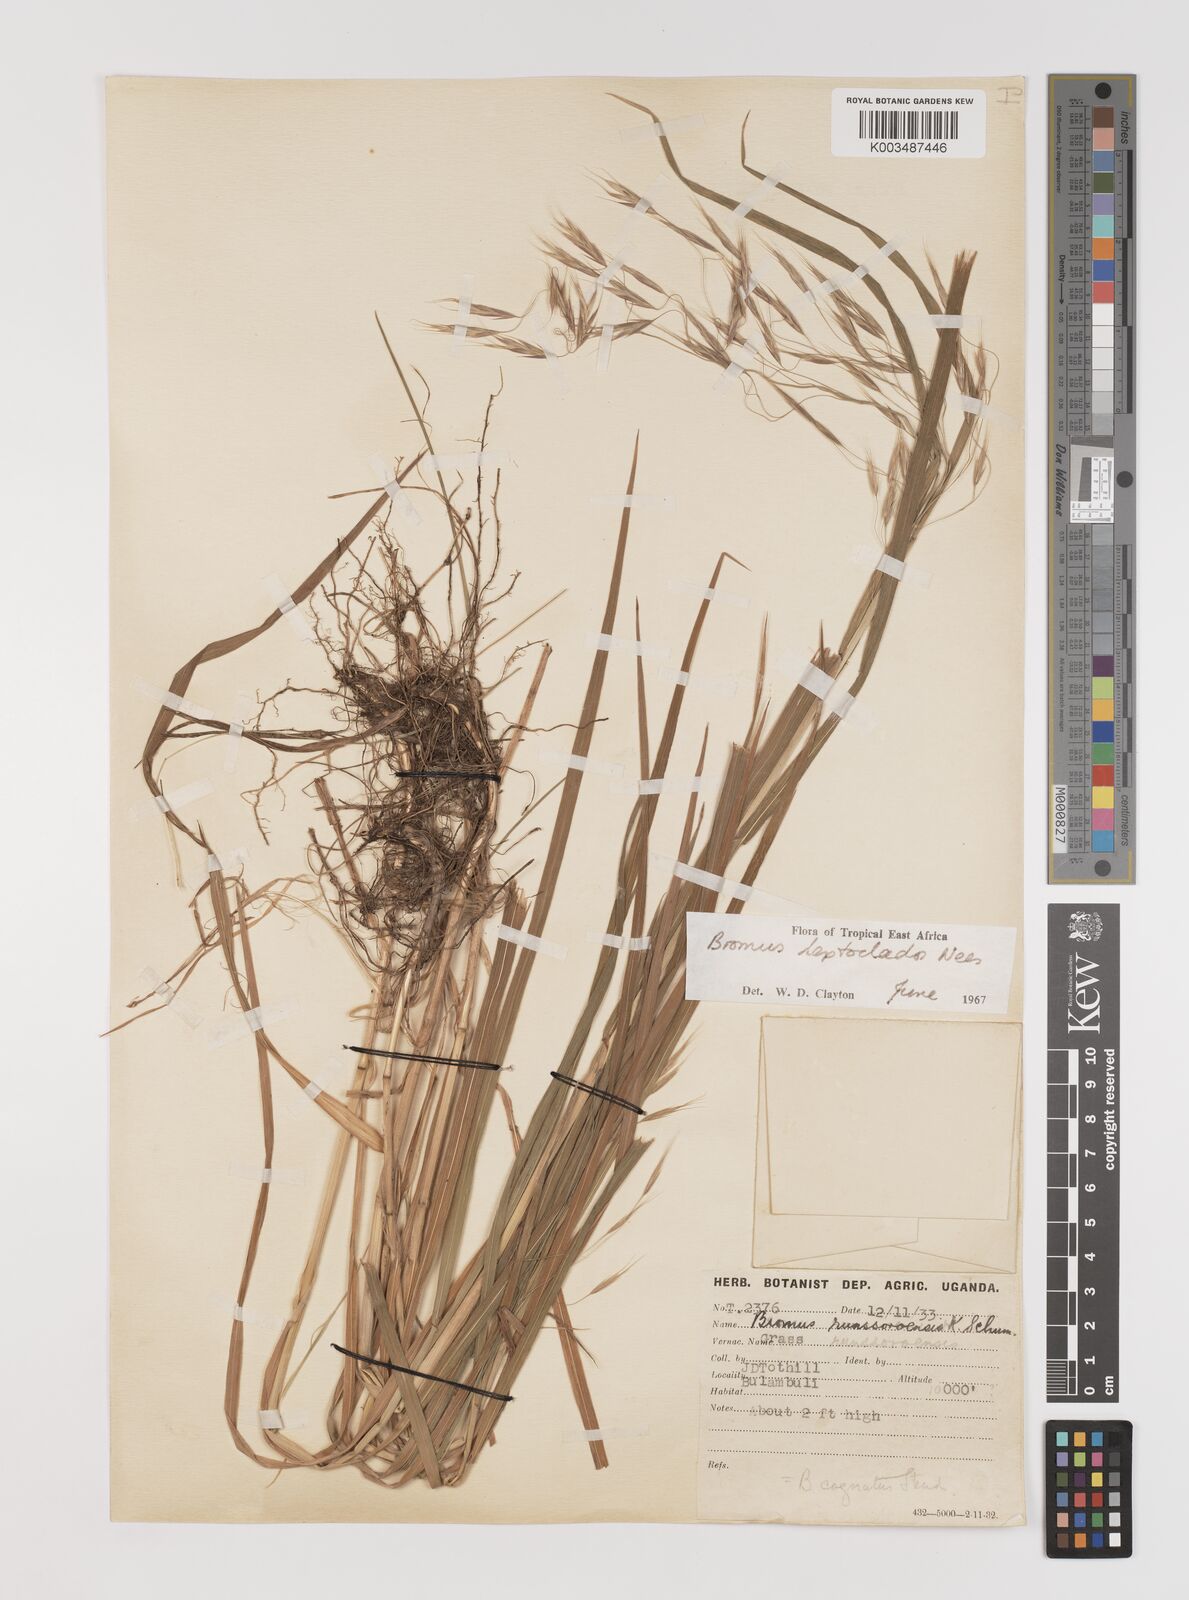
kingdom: Plantae
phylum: Tracheophyta
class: Liliopsida
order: Poales
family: Poaceae
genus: Bromus
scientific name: Bromus leptoclados
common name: Mountain bromegrass
